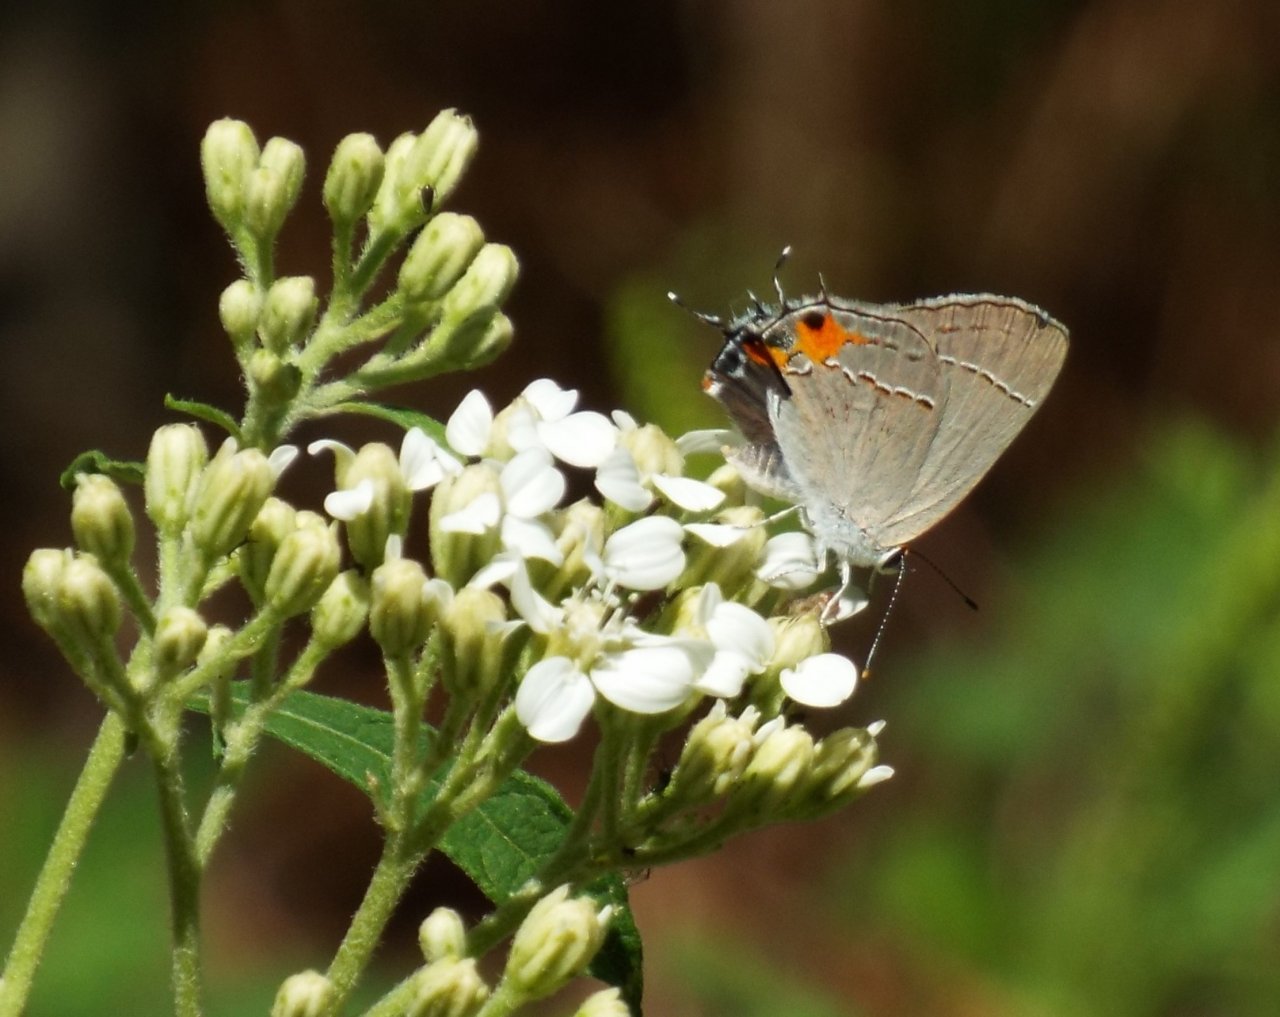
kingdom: Animalia
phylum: Arthropoda
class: Insecta
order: Lepidoptera
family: Lycaenidae
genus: Strymon
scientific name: Strymon melinus
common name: Gray Hairstreak
